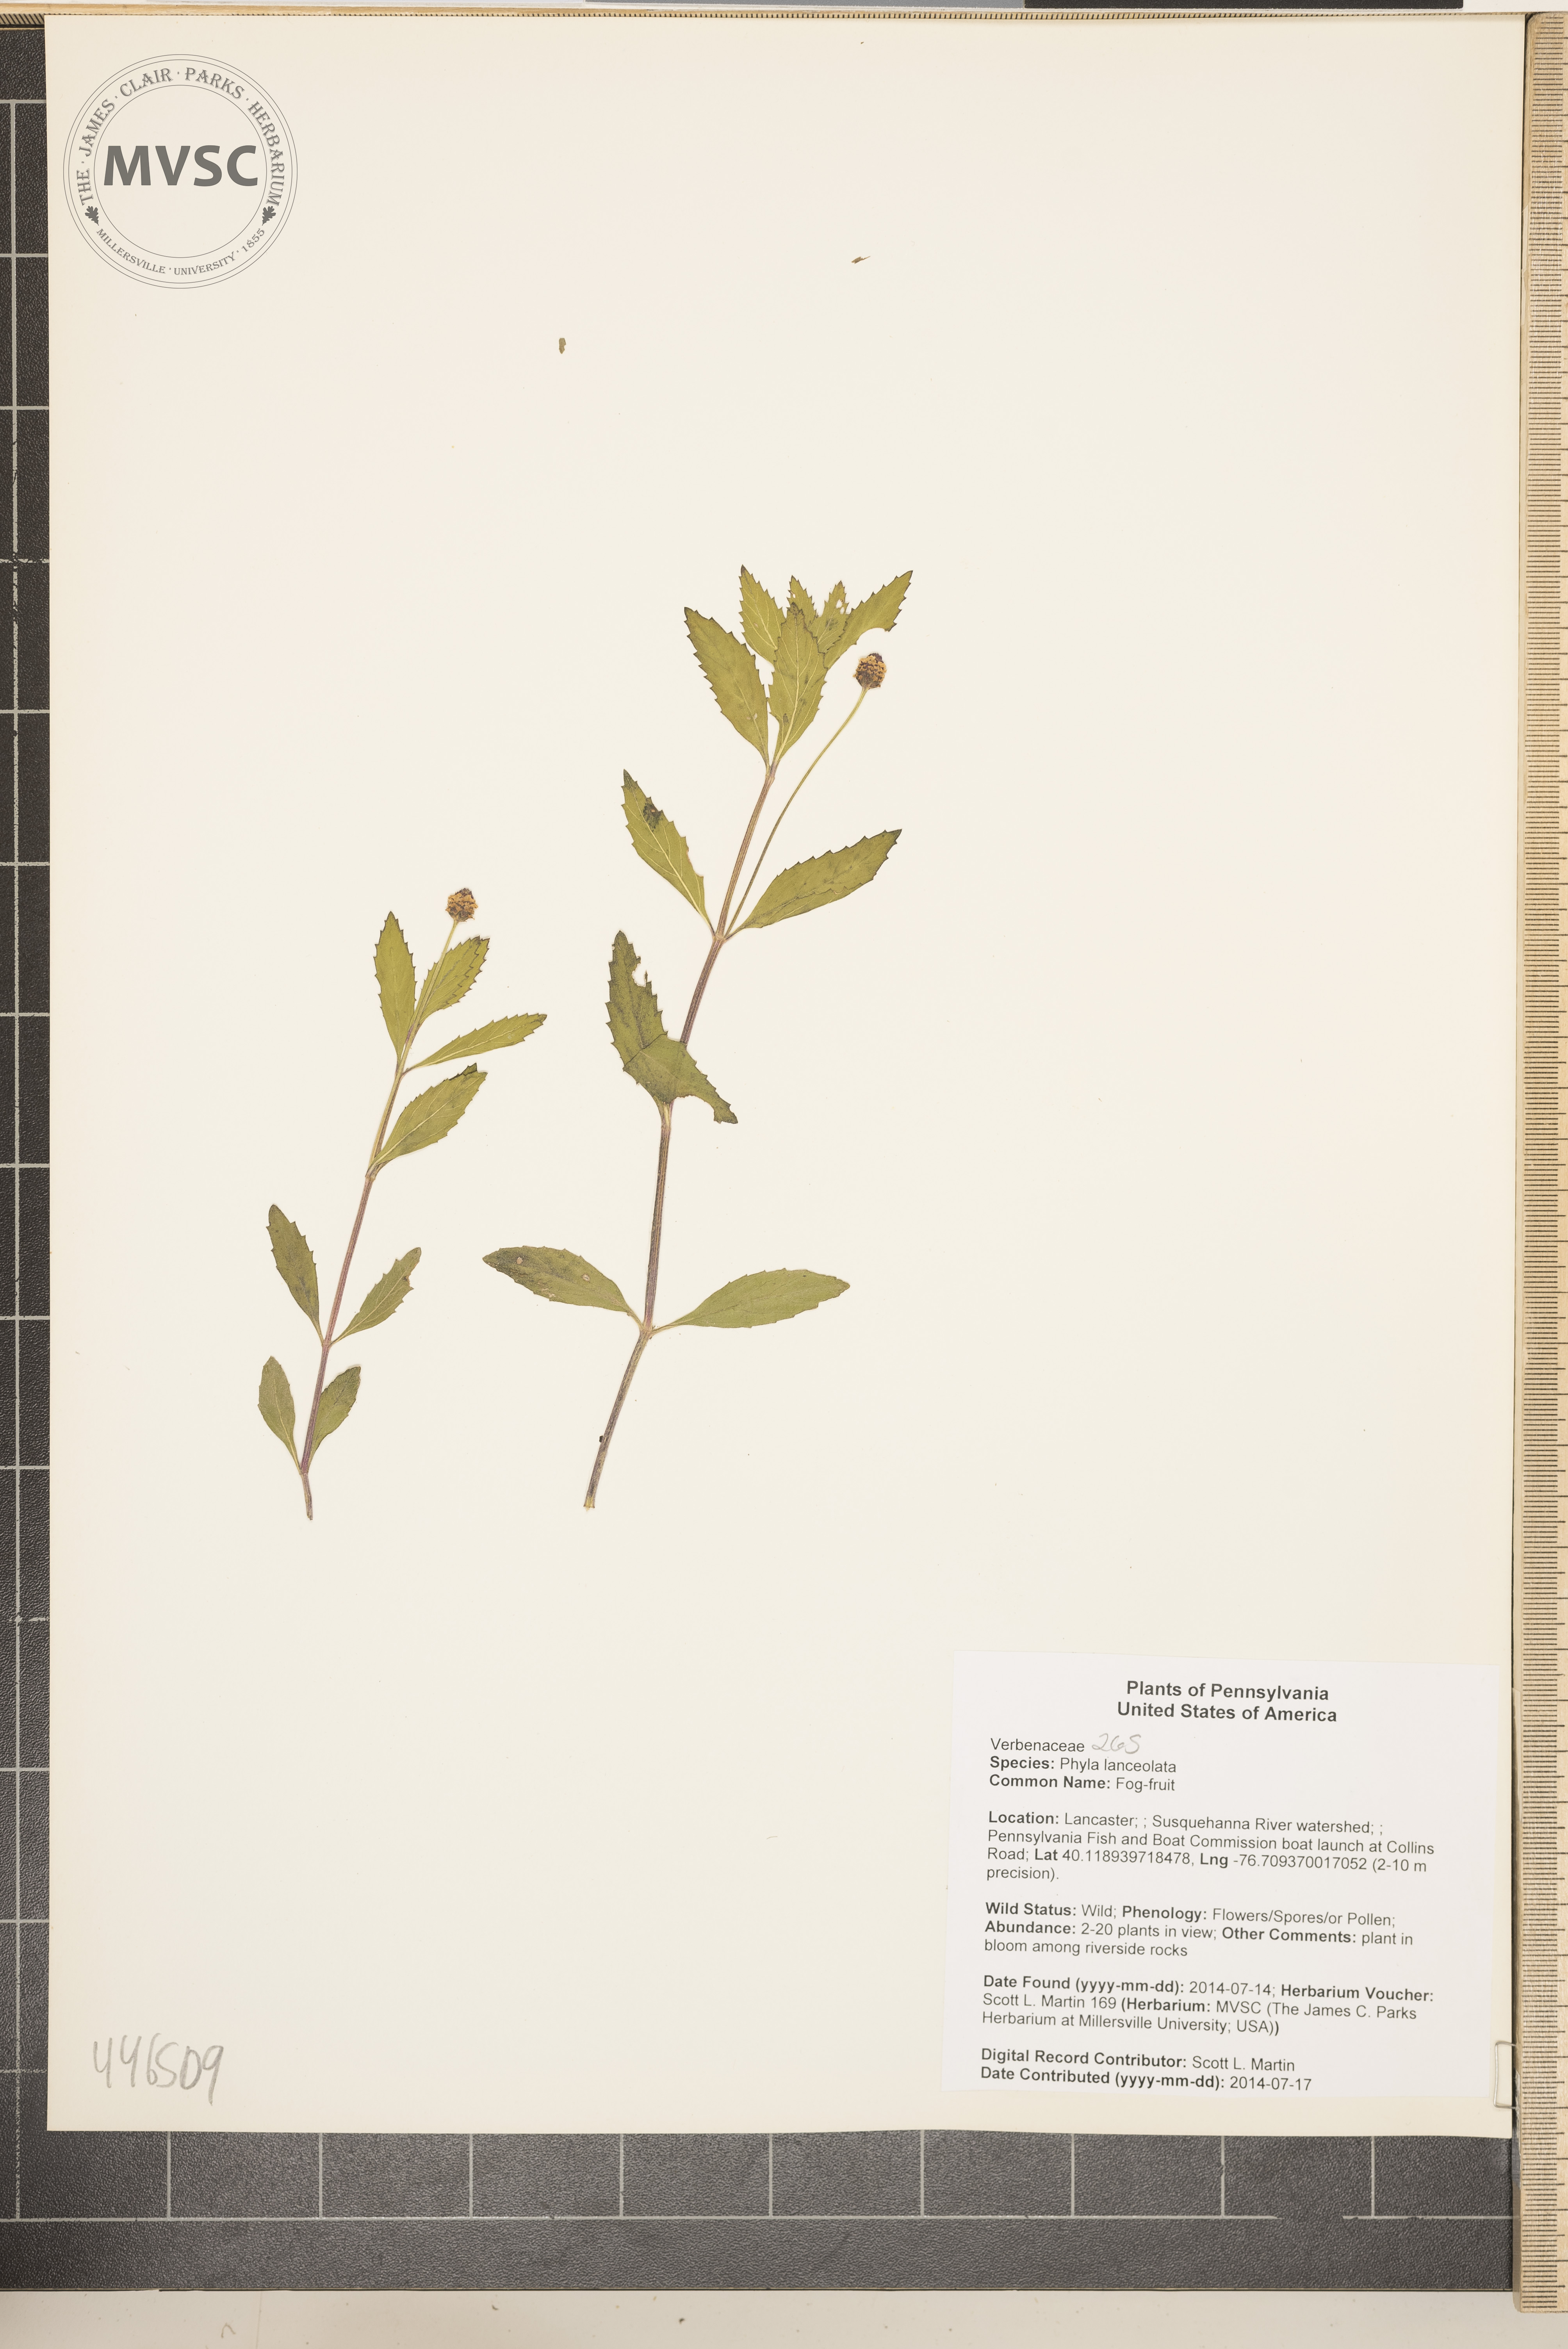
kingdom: Plantae
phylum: Tracheophyta
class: Magnoliopsida
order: Lamiales
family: Verbenaceae
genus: Phyla
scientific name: Phyla lanceolata
